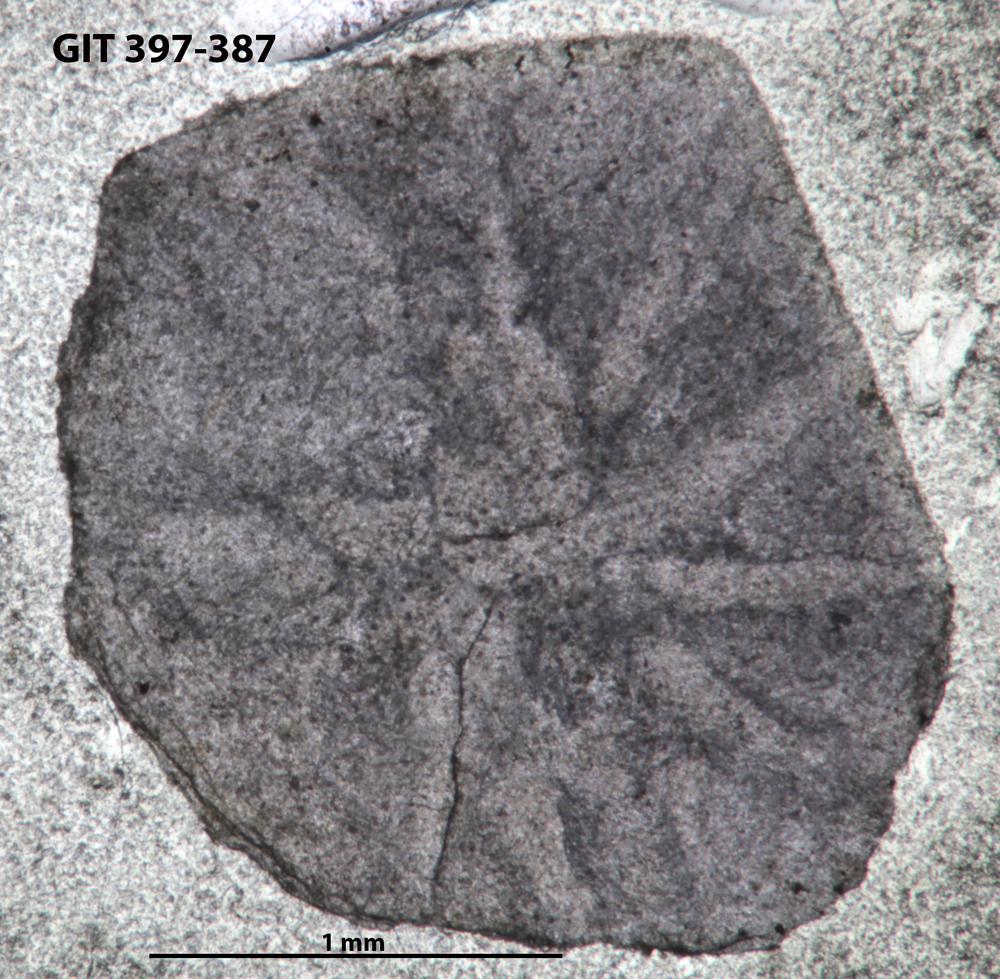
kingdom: Animalia
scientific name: Animalia
